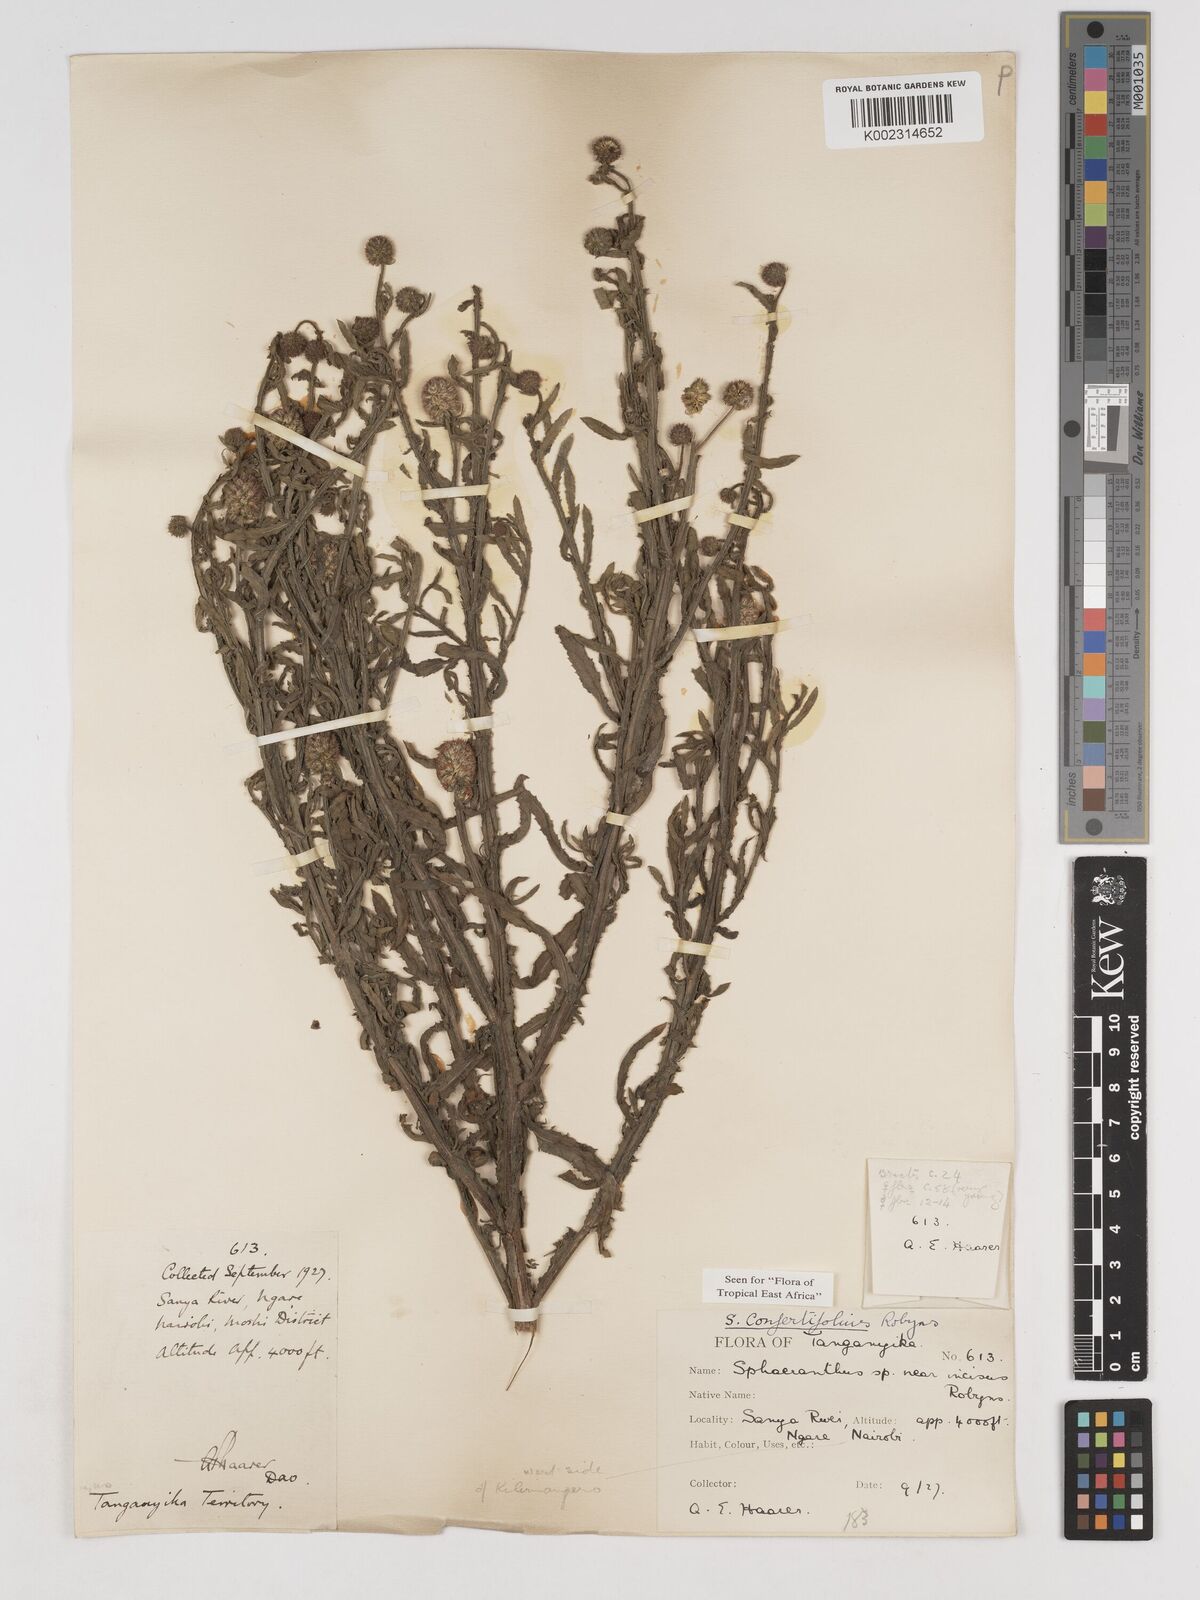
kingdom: Plantae
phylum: Tracheophyta
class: Magnoliopsida
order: Asterales
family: Asteraceae
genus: Sphaeranthus
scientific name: Sphaeranthus confertifolius
